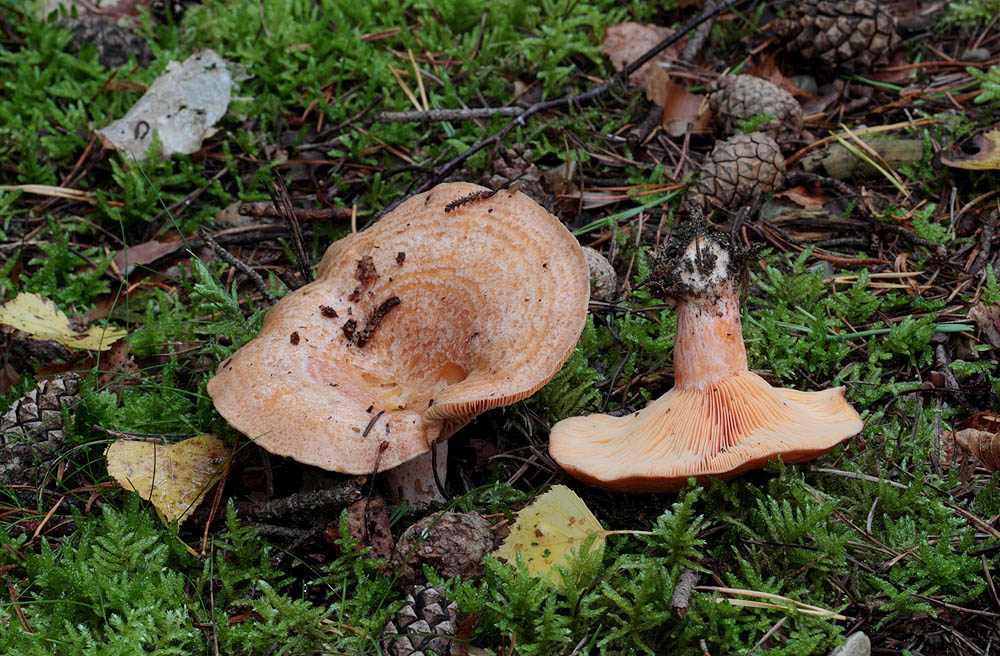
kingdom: Fungi
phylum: Basidiomycota
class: Agaricomycetes
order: Russulales
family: Russulaceae
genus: Lactarius
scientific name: Lactarius deliciosus
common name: velsmagende mælkehat
